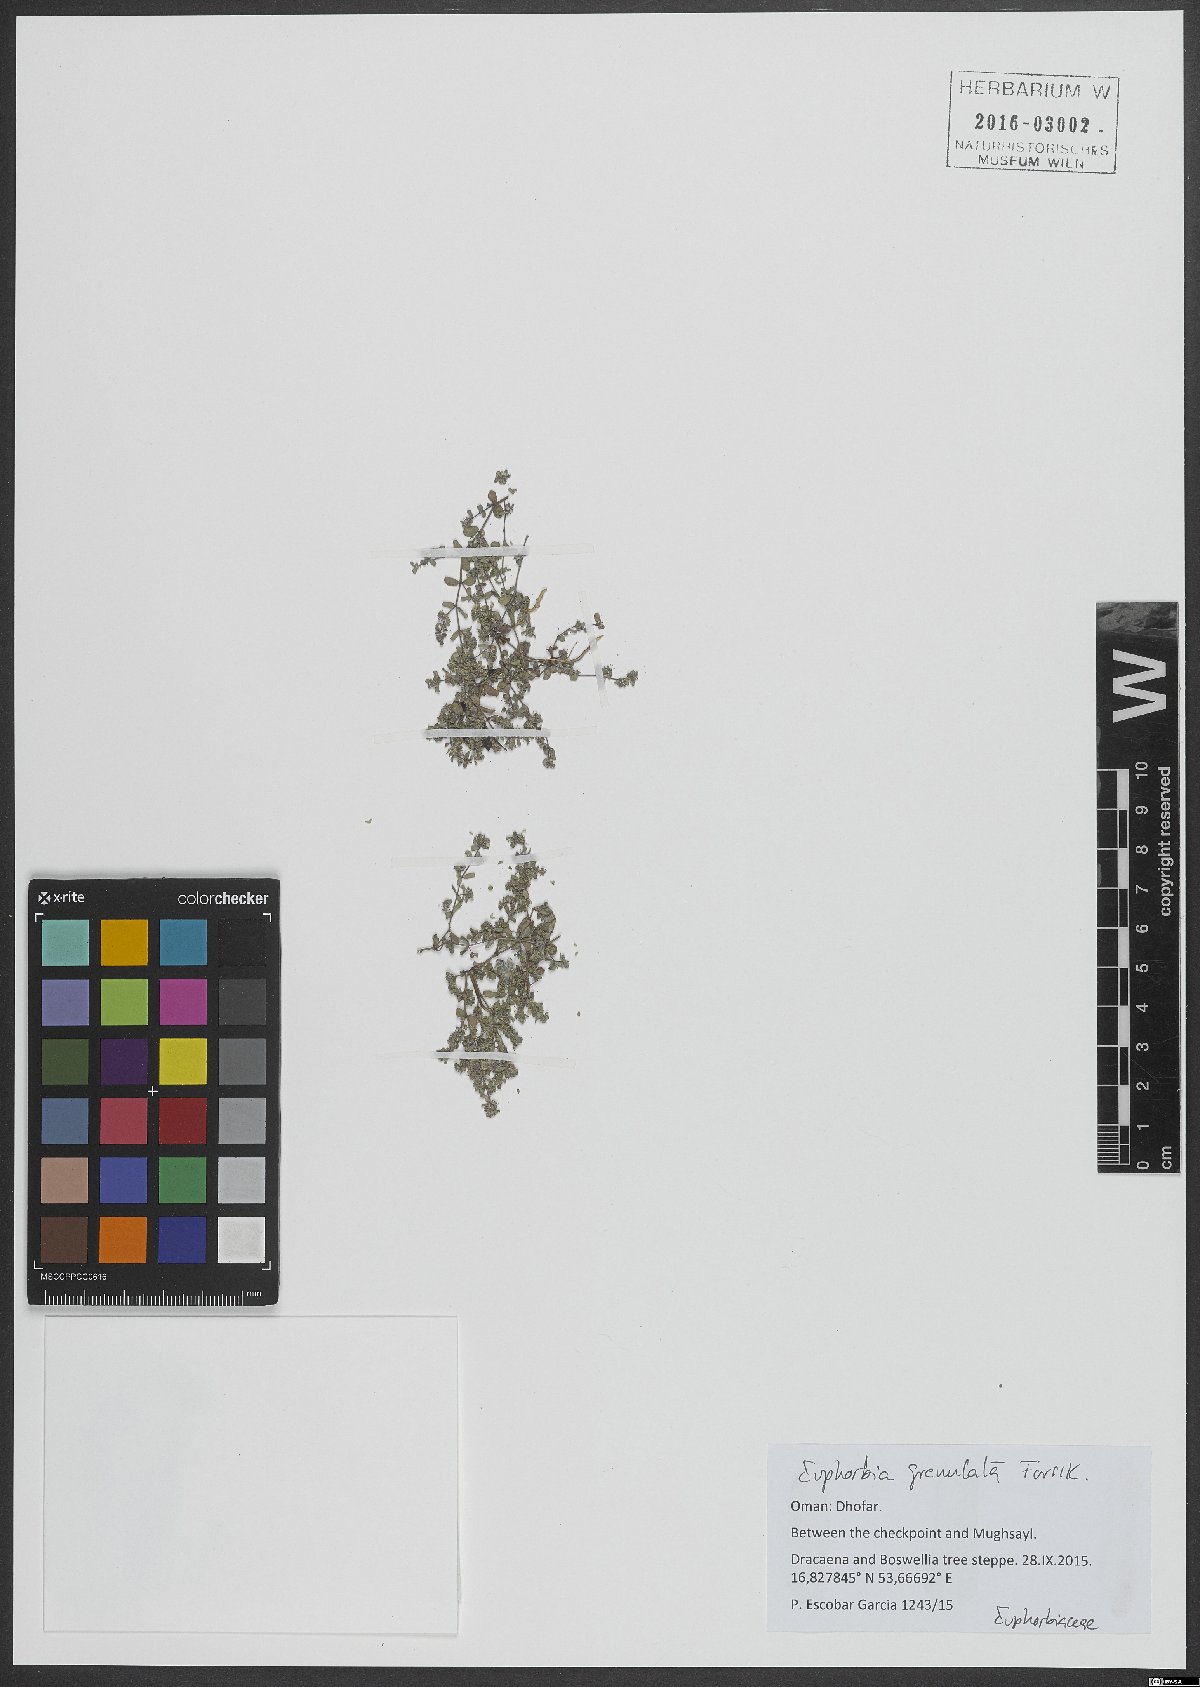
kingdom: Plantae
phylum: Tracheophyta
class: Magnoliopsida
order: Malpighiales
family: Euphorbiaceae
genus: Euphorbia
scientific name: Euphorbia granulata
